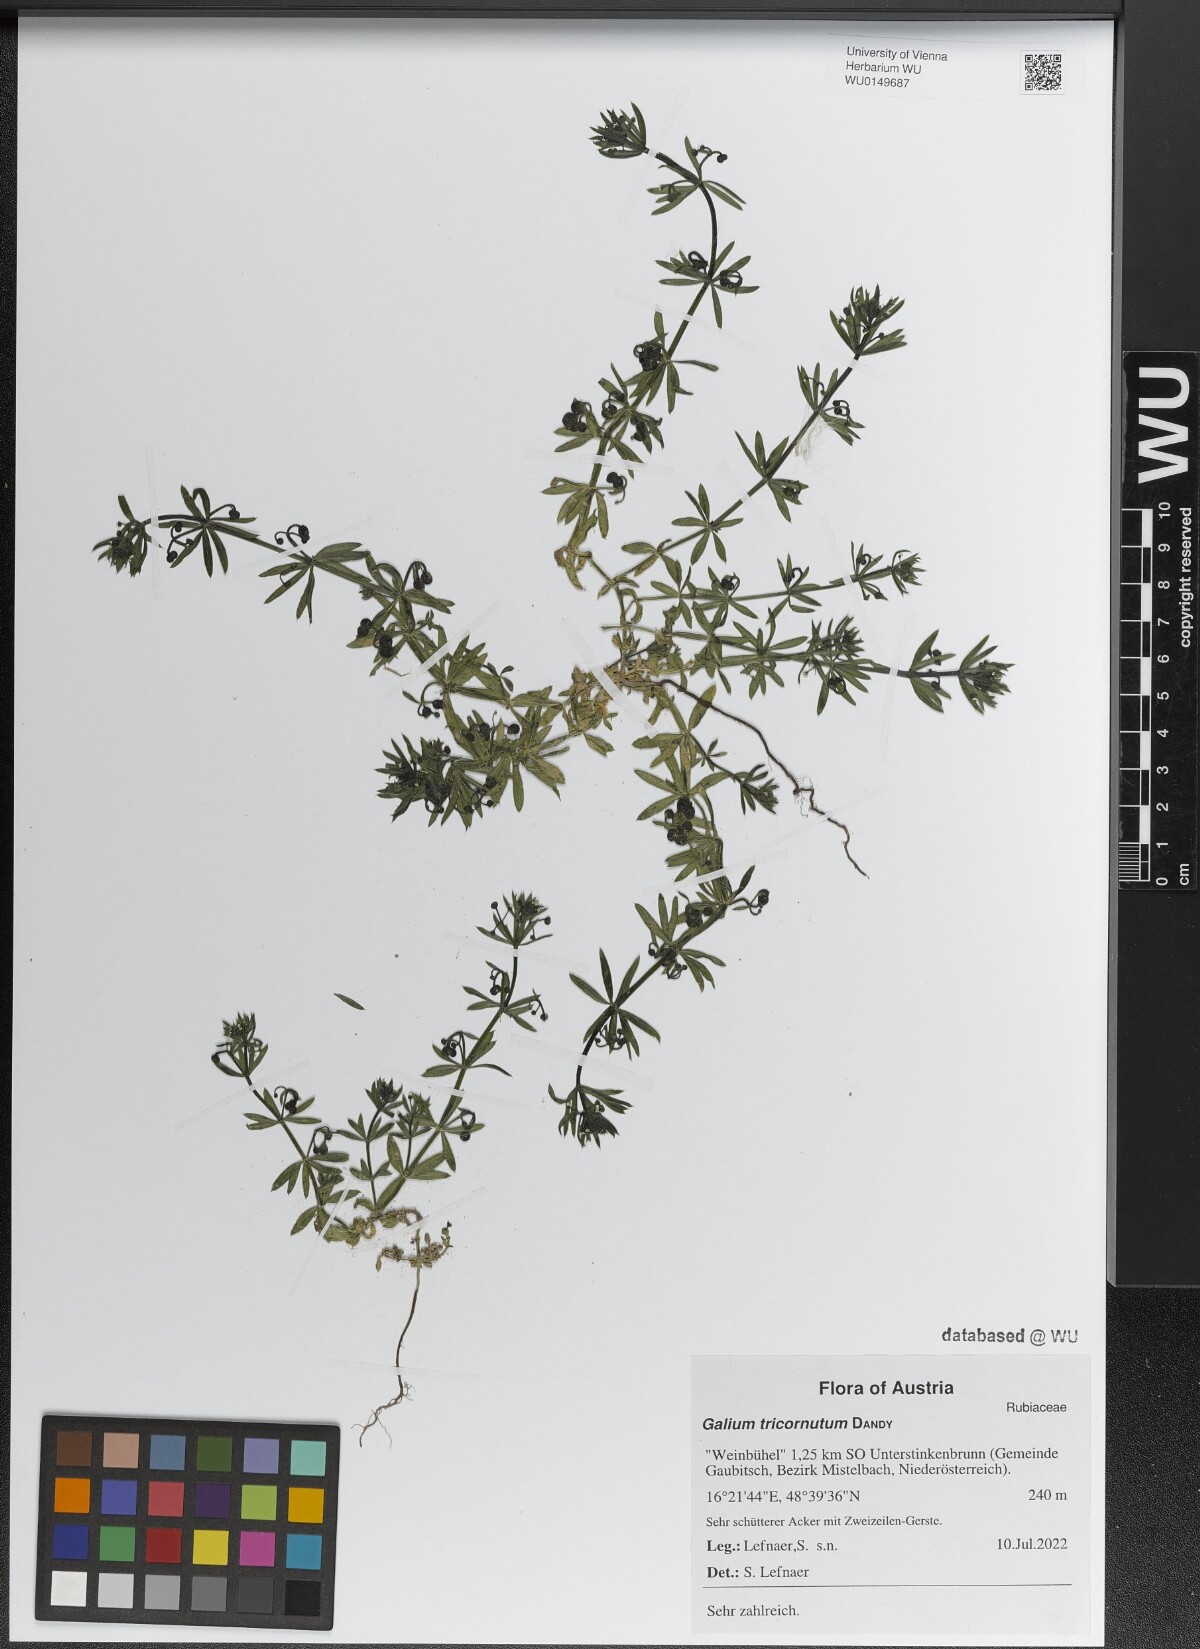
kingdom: Plantae
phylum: Tracheophyta
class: Magnoliopsida
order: Gentianales
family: Rubiaceae
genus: Galium
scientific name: Galium tricornutum
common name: Corn cleavers
